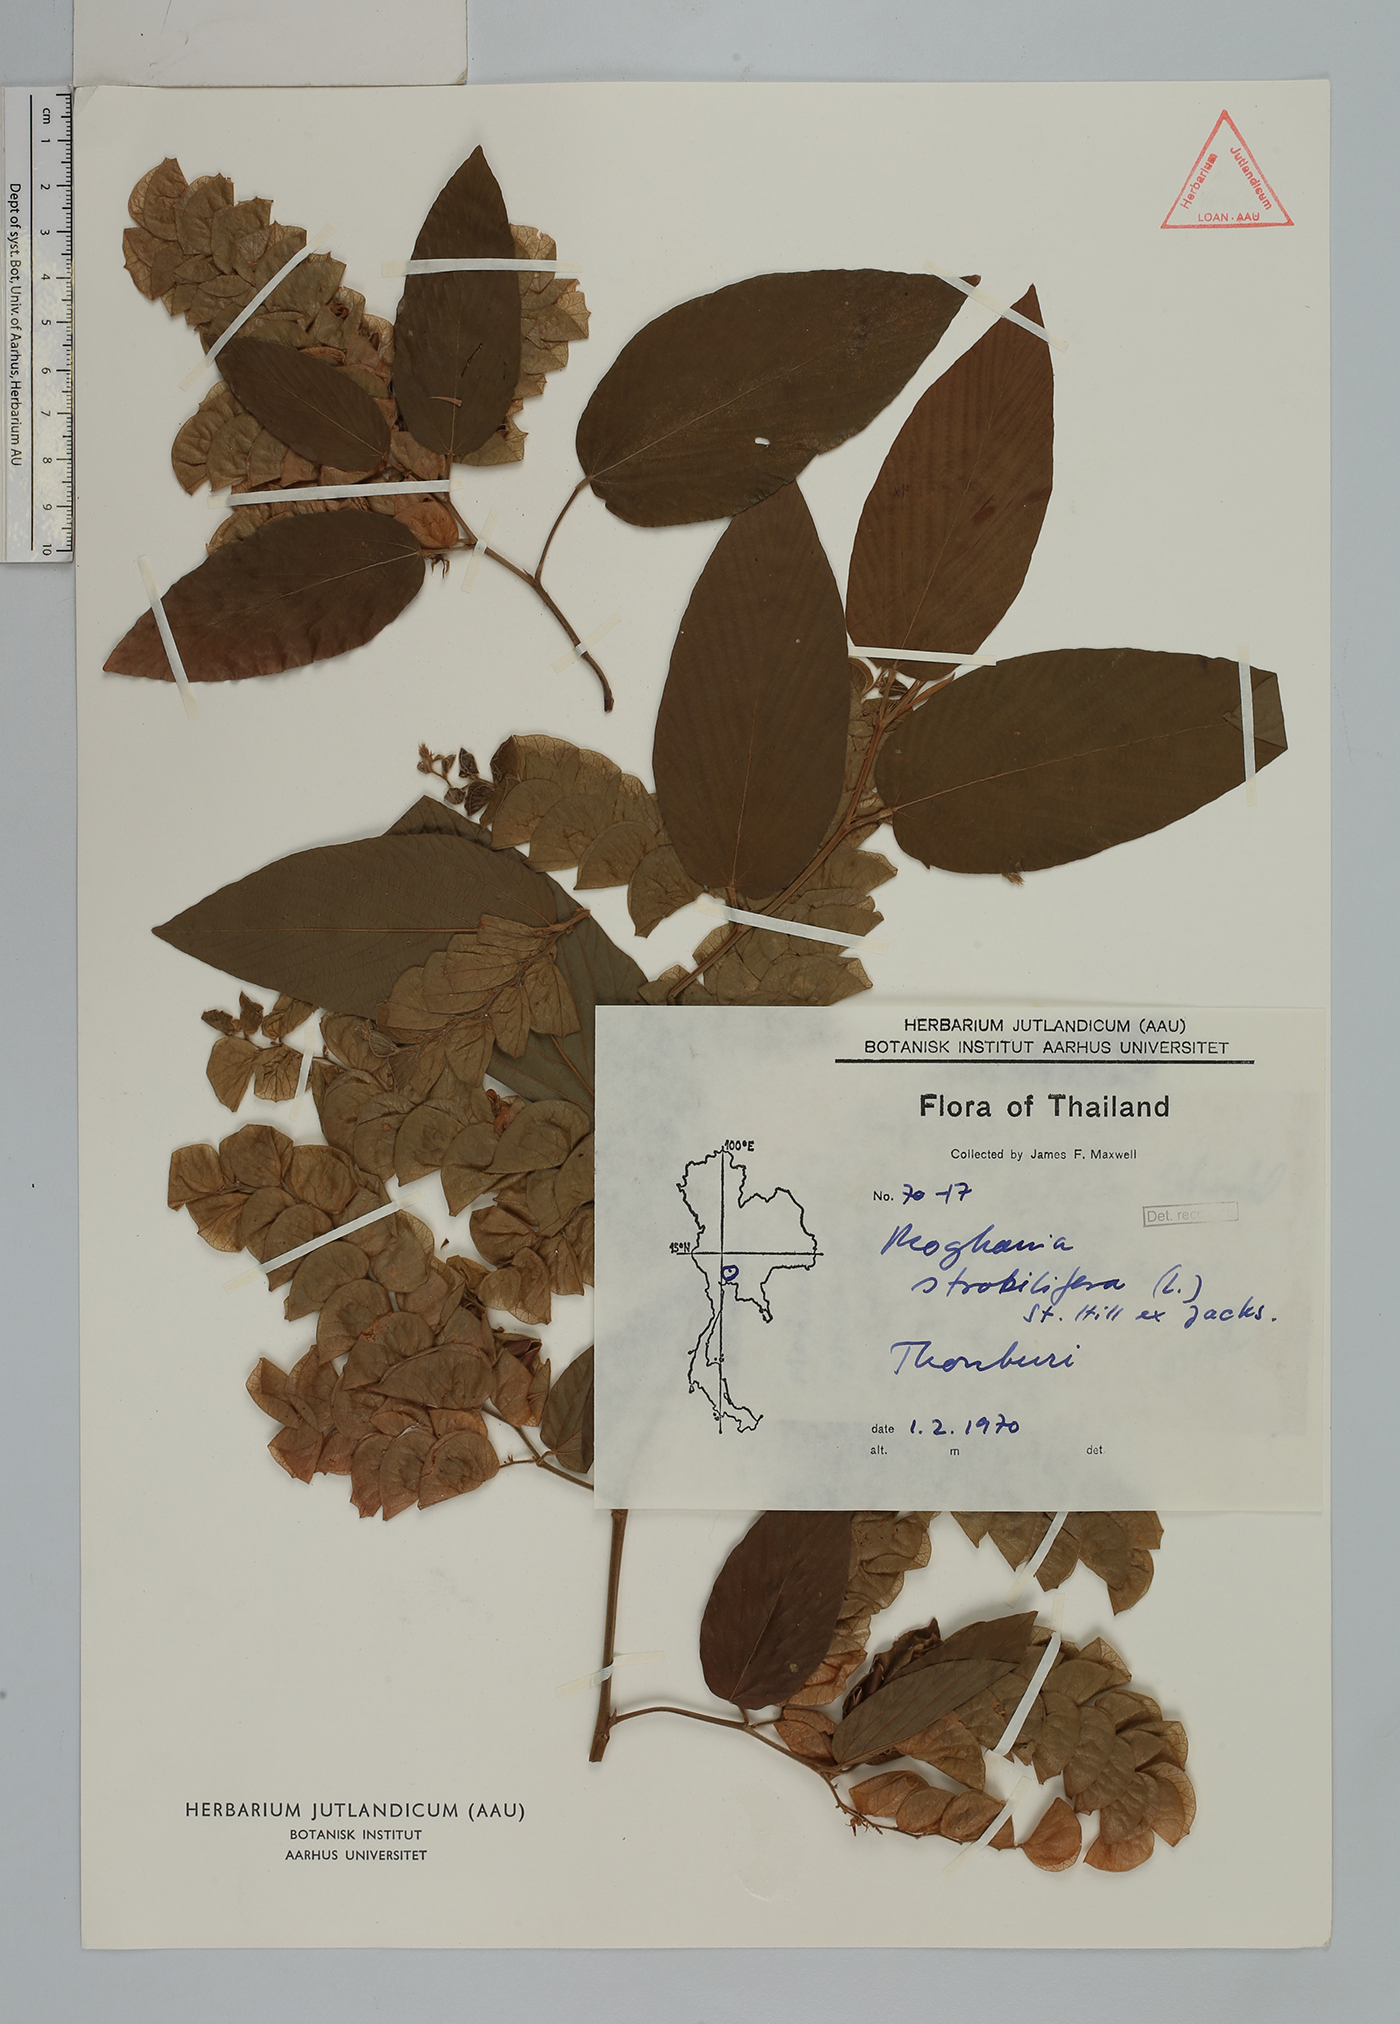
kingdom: Plantae
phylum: Tracheophyta
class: Magnoliopsida
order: Fabales
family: Fabaceae
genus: Flemingia
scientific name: Flemingia strobilifera
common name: Wild hops
